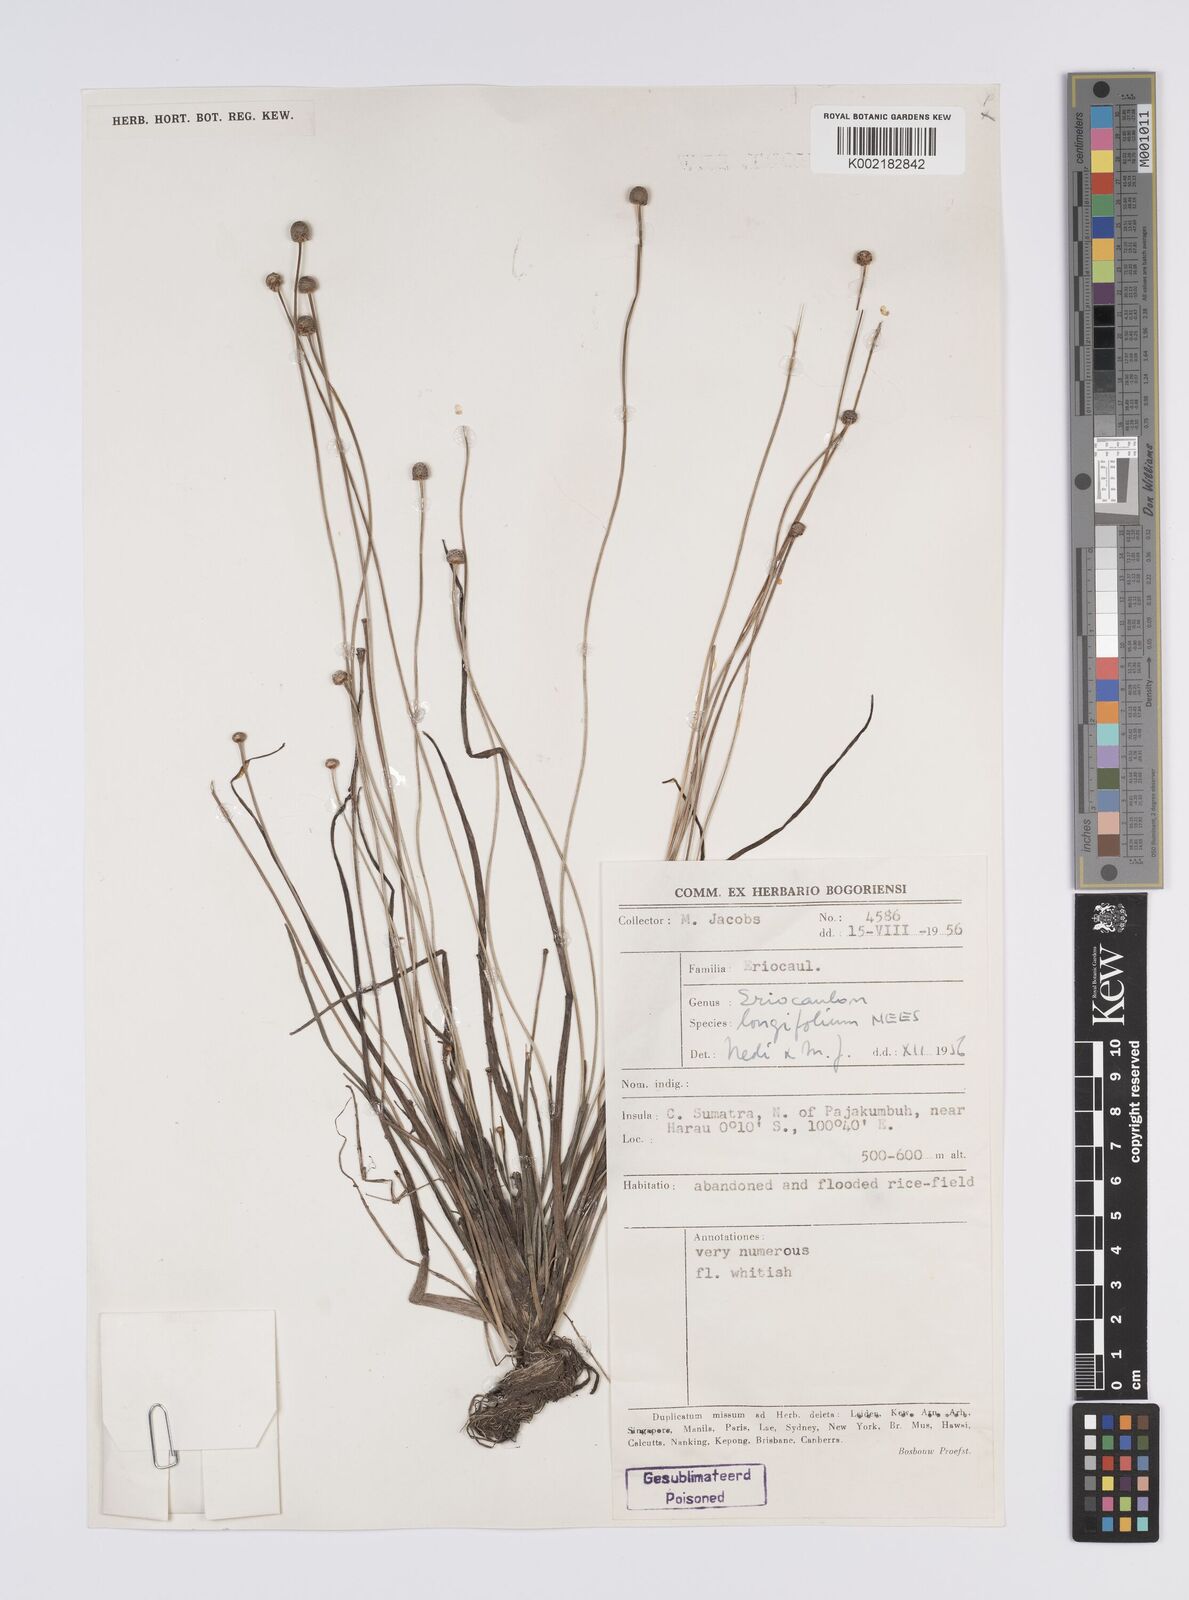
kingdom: Plantae
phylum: Tracheophyta
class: Liliopsida
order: Poales
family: Eriocaulaceae
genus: Eriocaulon
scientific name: Eriocaulon willdenovianum
